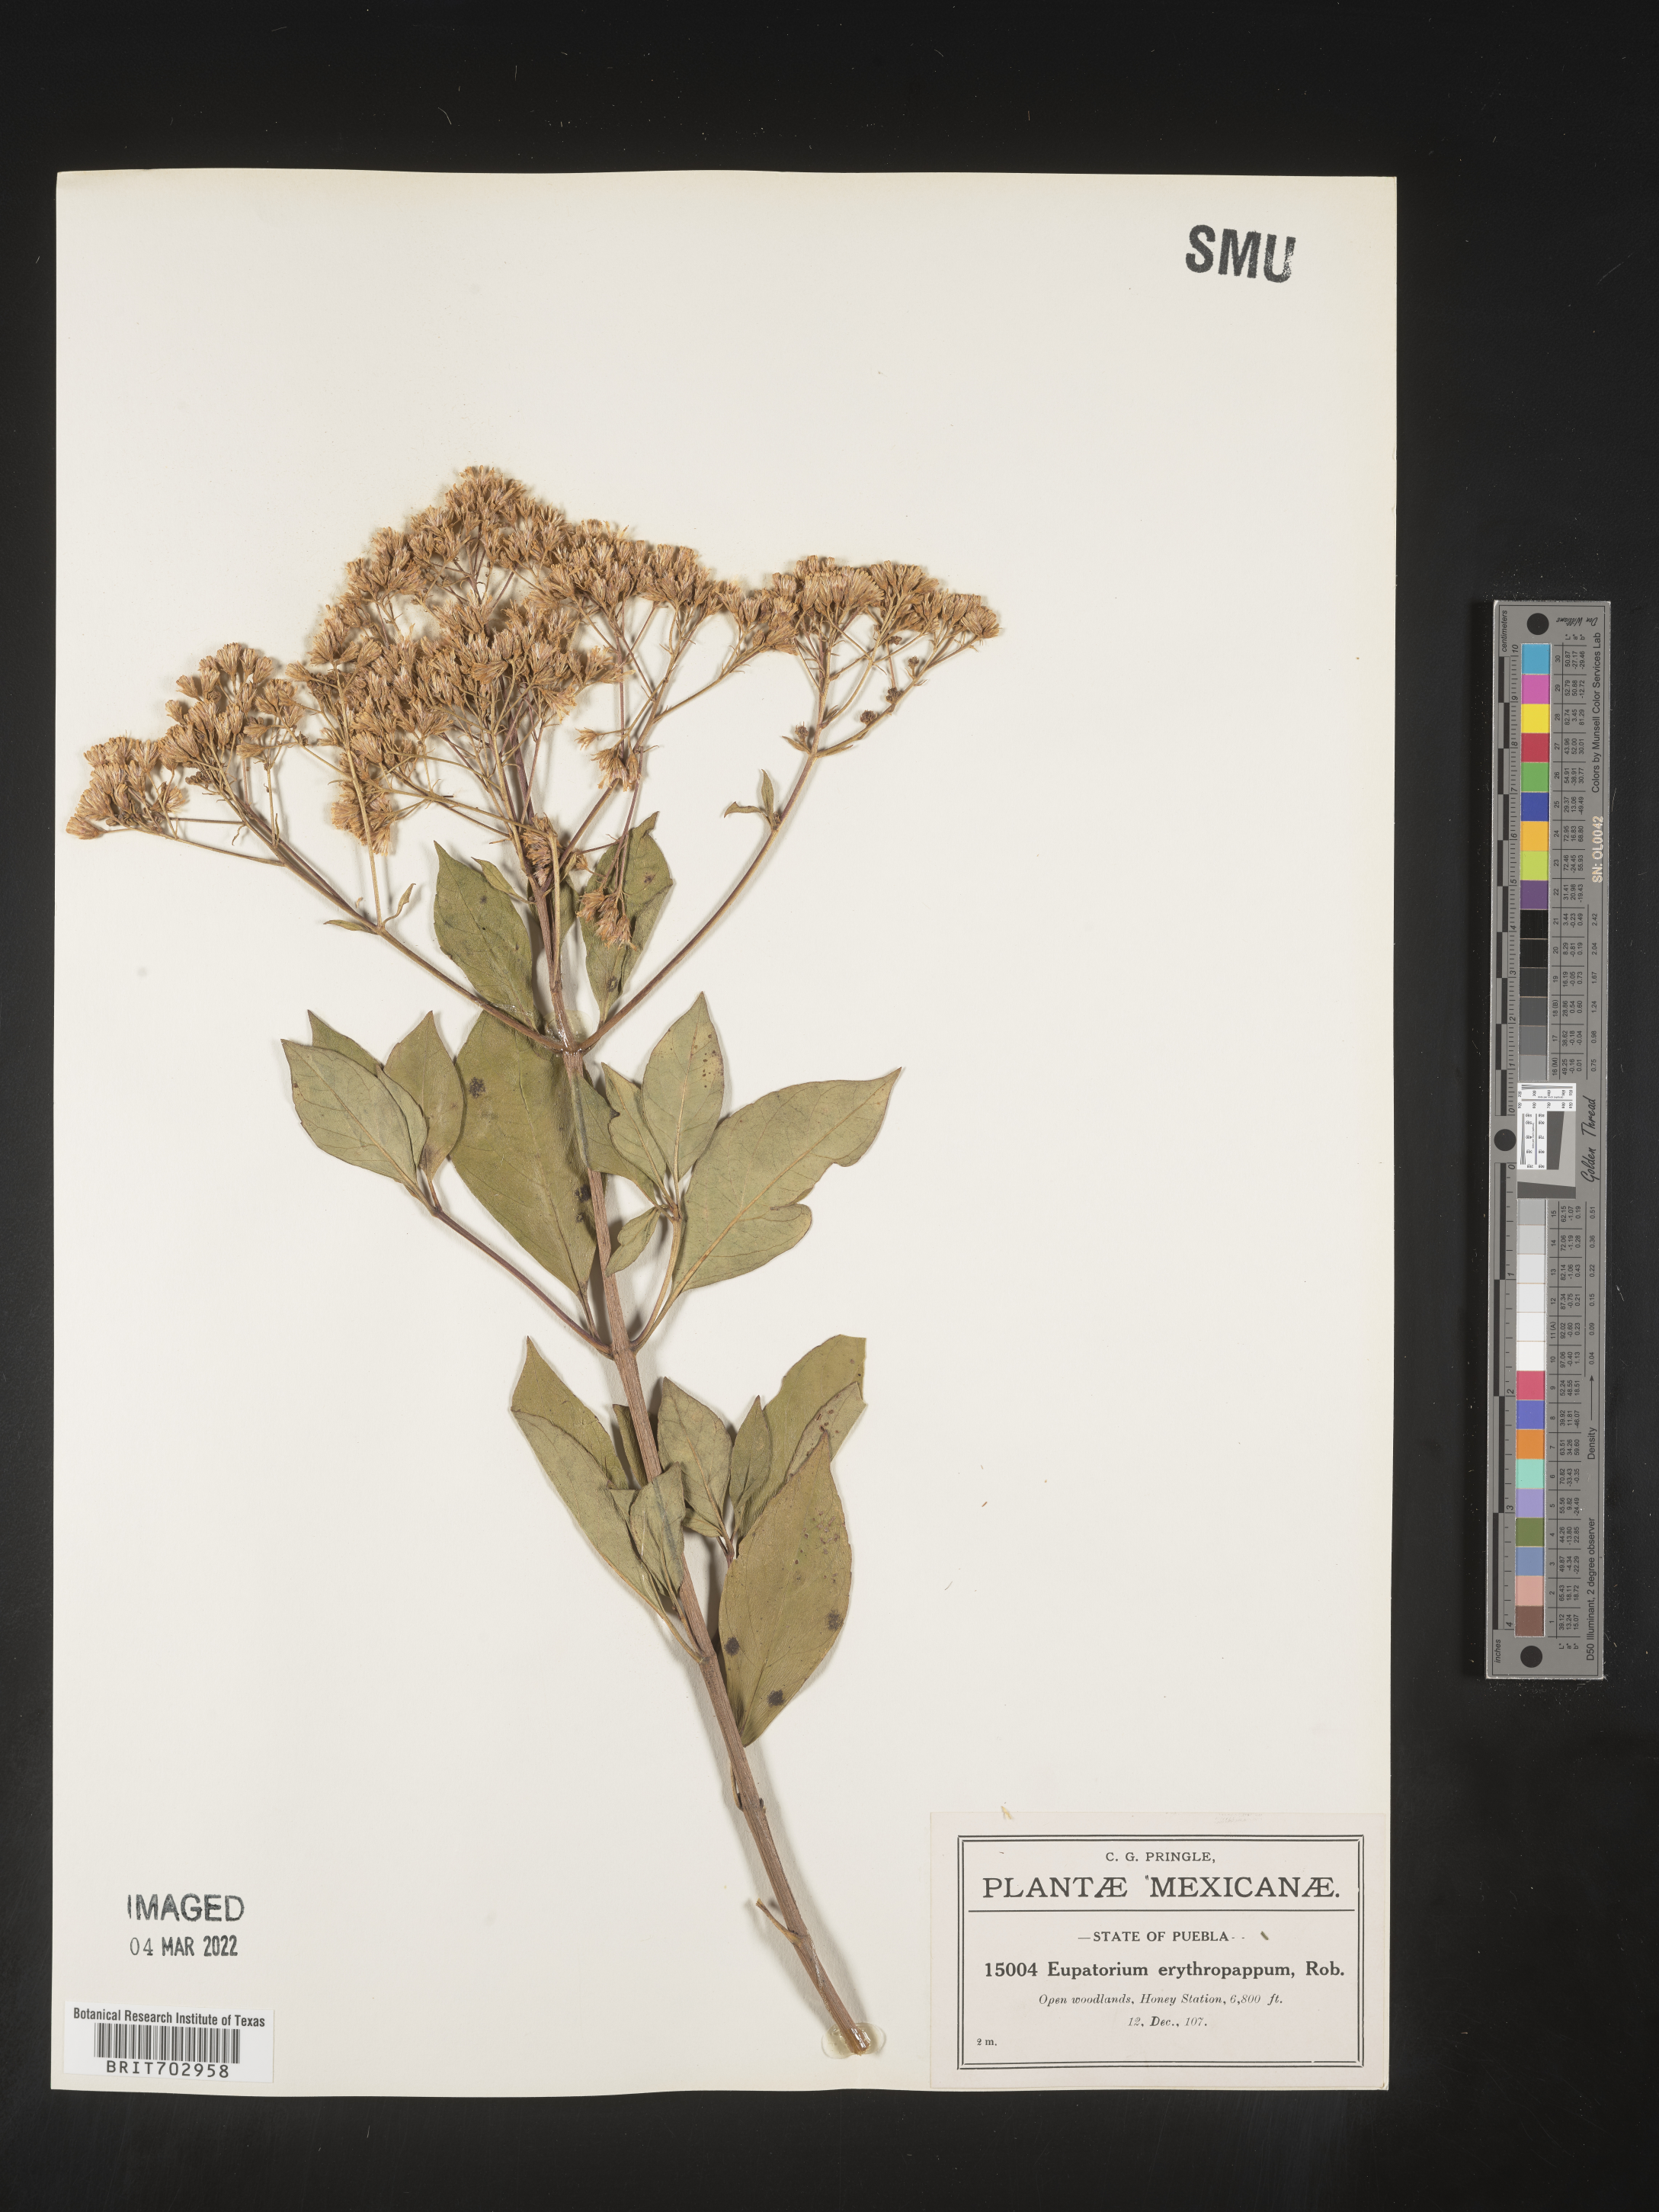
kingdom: Plantae
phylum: Tracheophyta
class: Magnoliopsida
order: Asterales
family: Asteraceae
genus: Eupatorium
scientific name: Eupatorium
